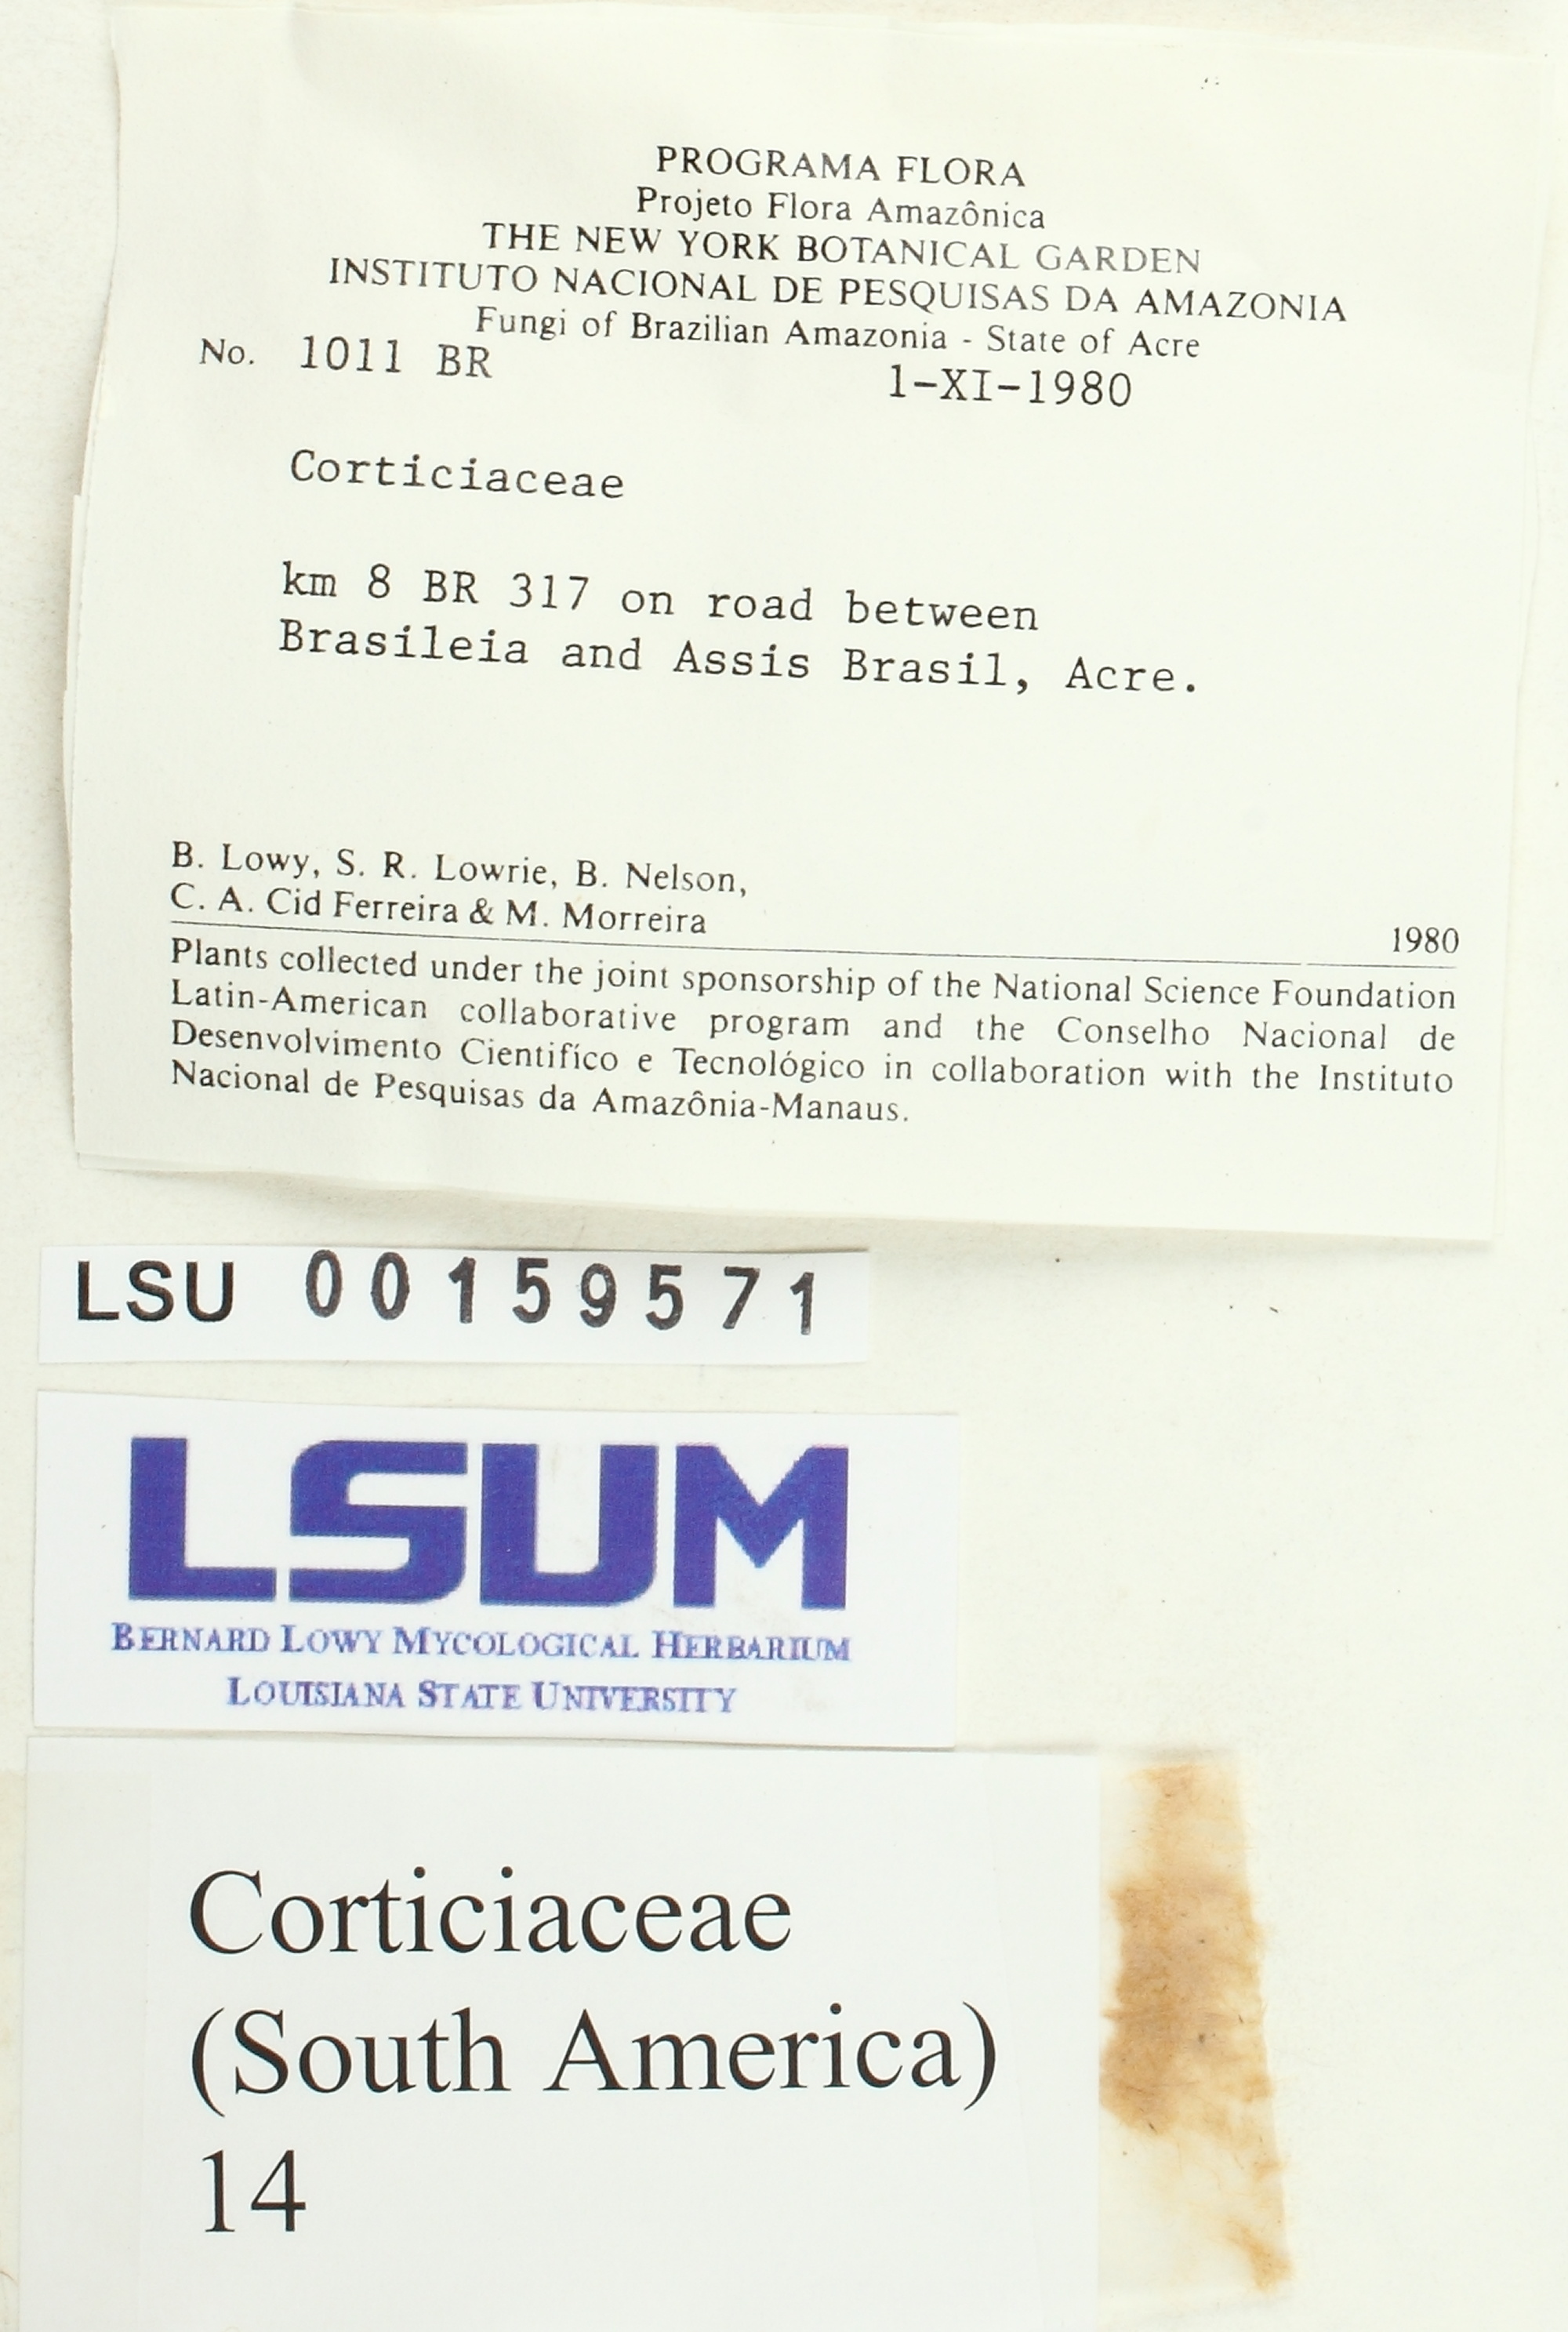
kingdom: Fungi
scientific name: Fungi
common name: Fungi
